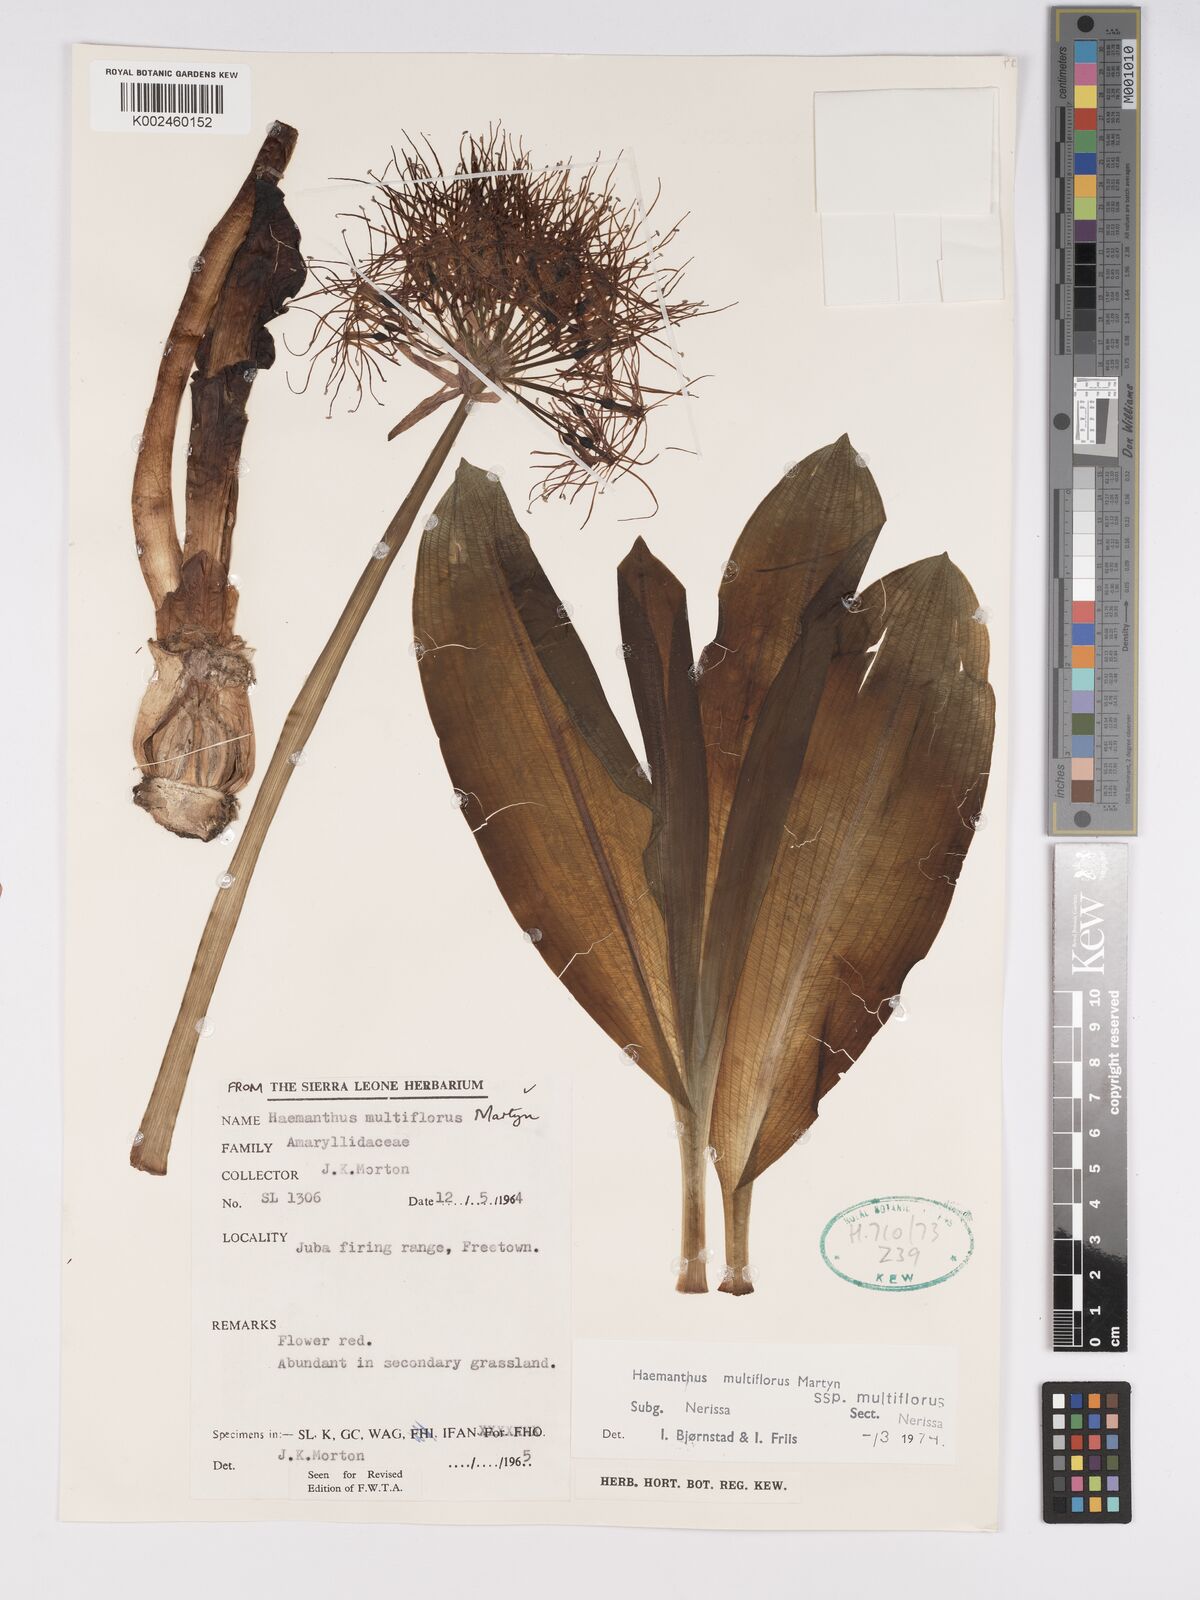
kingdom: Plantae
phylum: Tracheophyta
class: Liliopsida
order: Asparagales
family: Amaryllidaceae
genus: Scadoxus
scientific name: Scadoxus multiflorus
